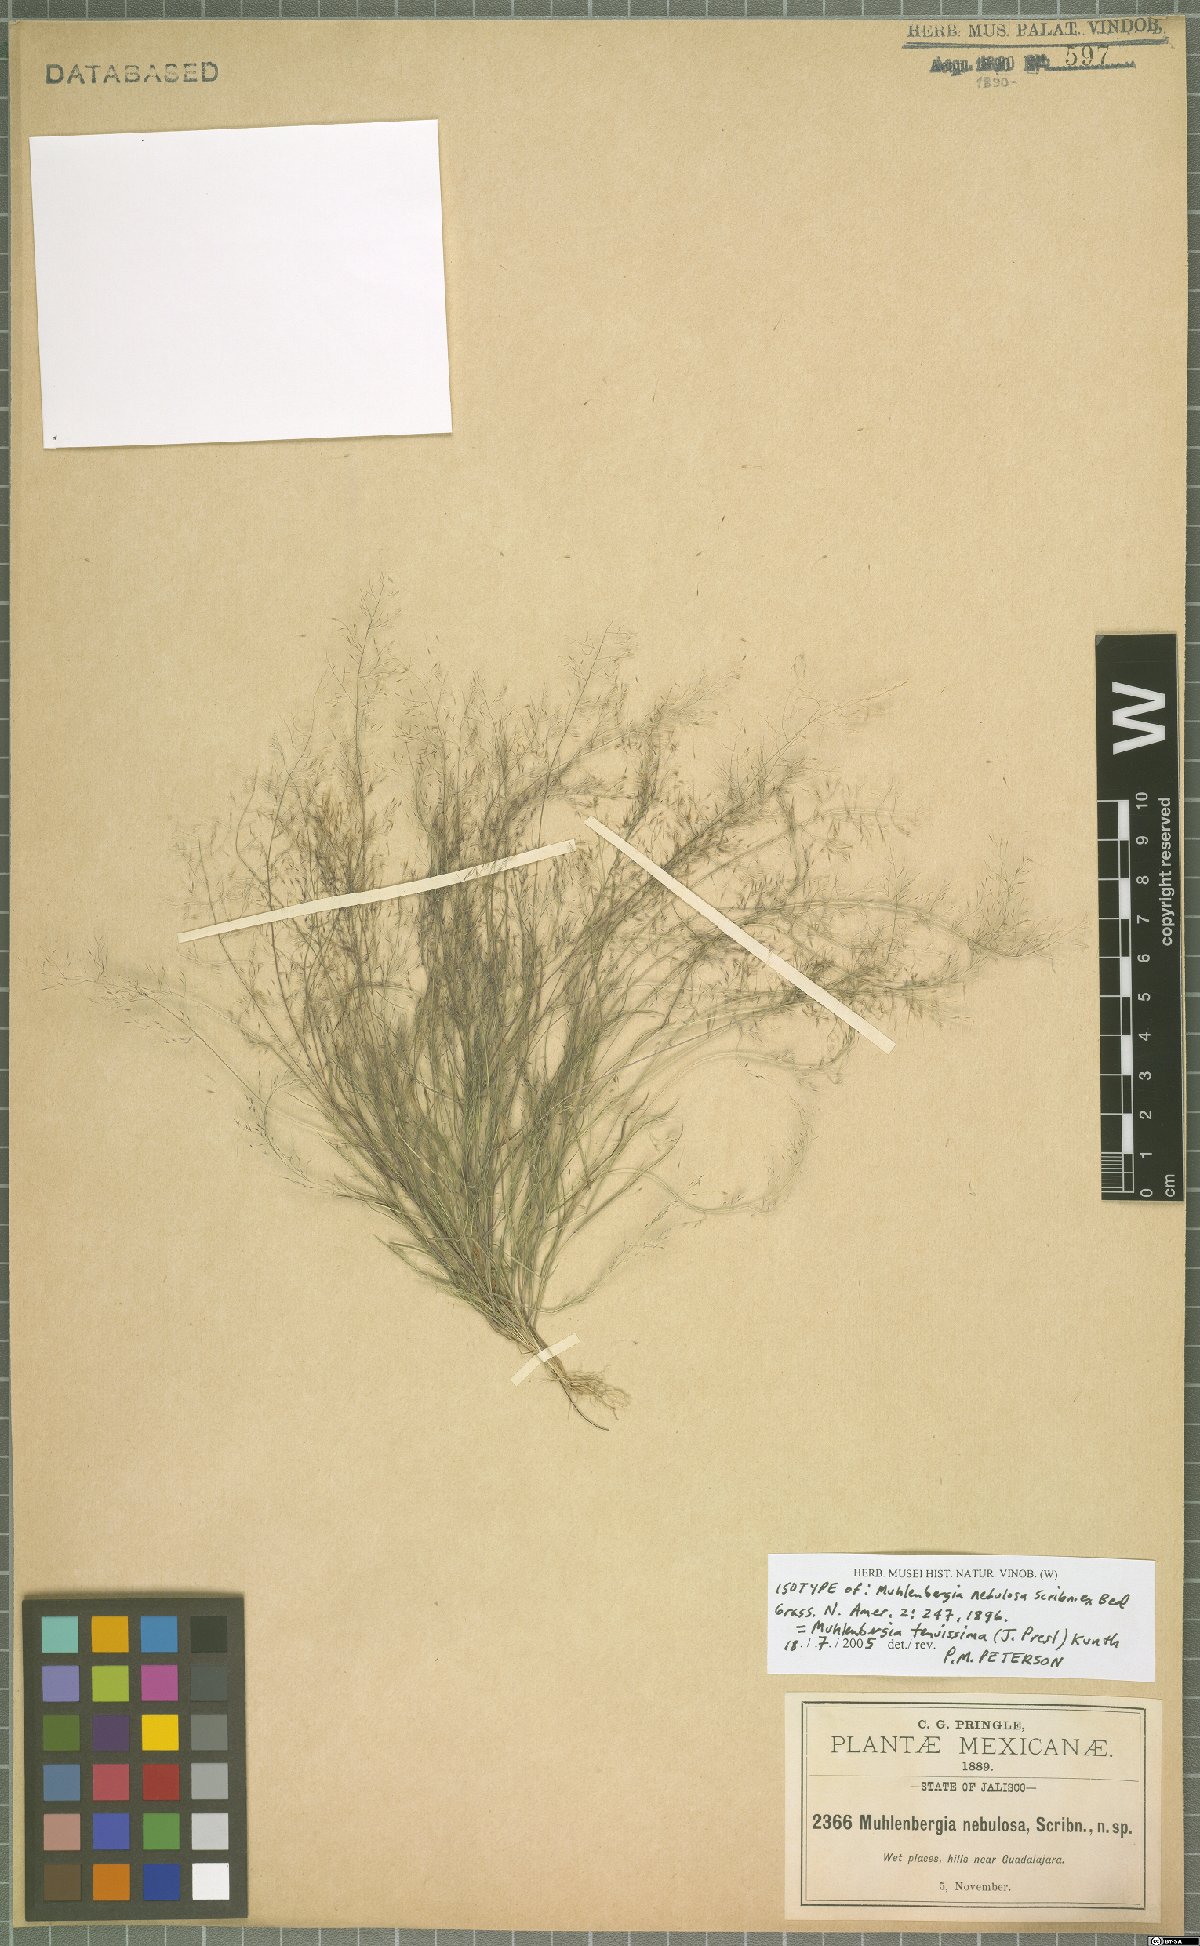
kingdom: Plantae
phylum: Tracheophyta
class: Liliopsida
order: Poales
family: Poaceae
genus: Muhlenbergia
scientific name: Muhlenbergia tenuissima
